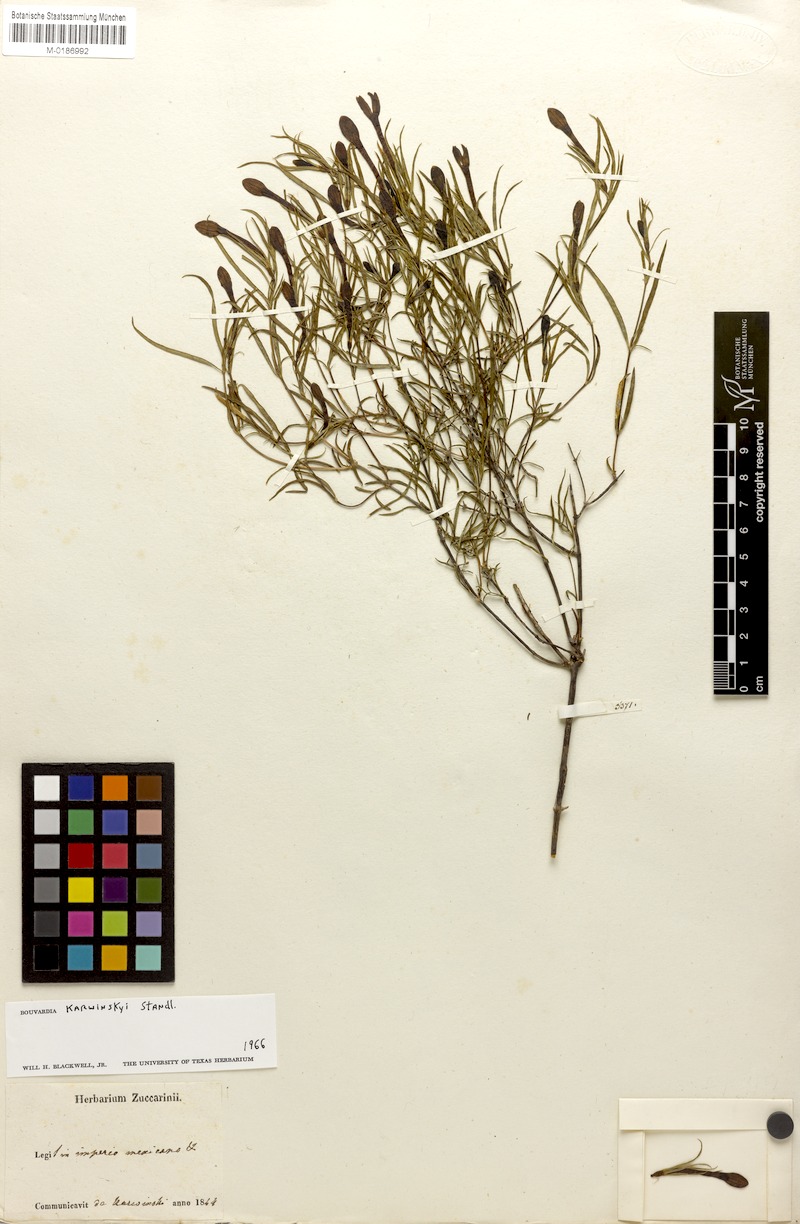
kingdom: Plantae
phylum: Tracheophyta
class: Magnoliopsida
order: Gentianales
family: Rubiaceae
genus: Bouvardia
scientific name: Bouvardia karwinskyi
